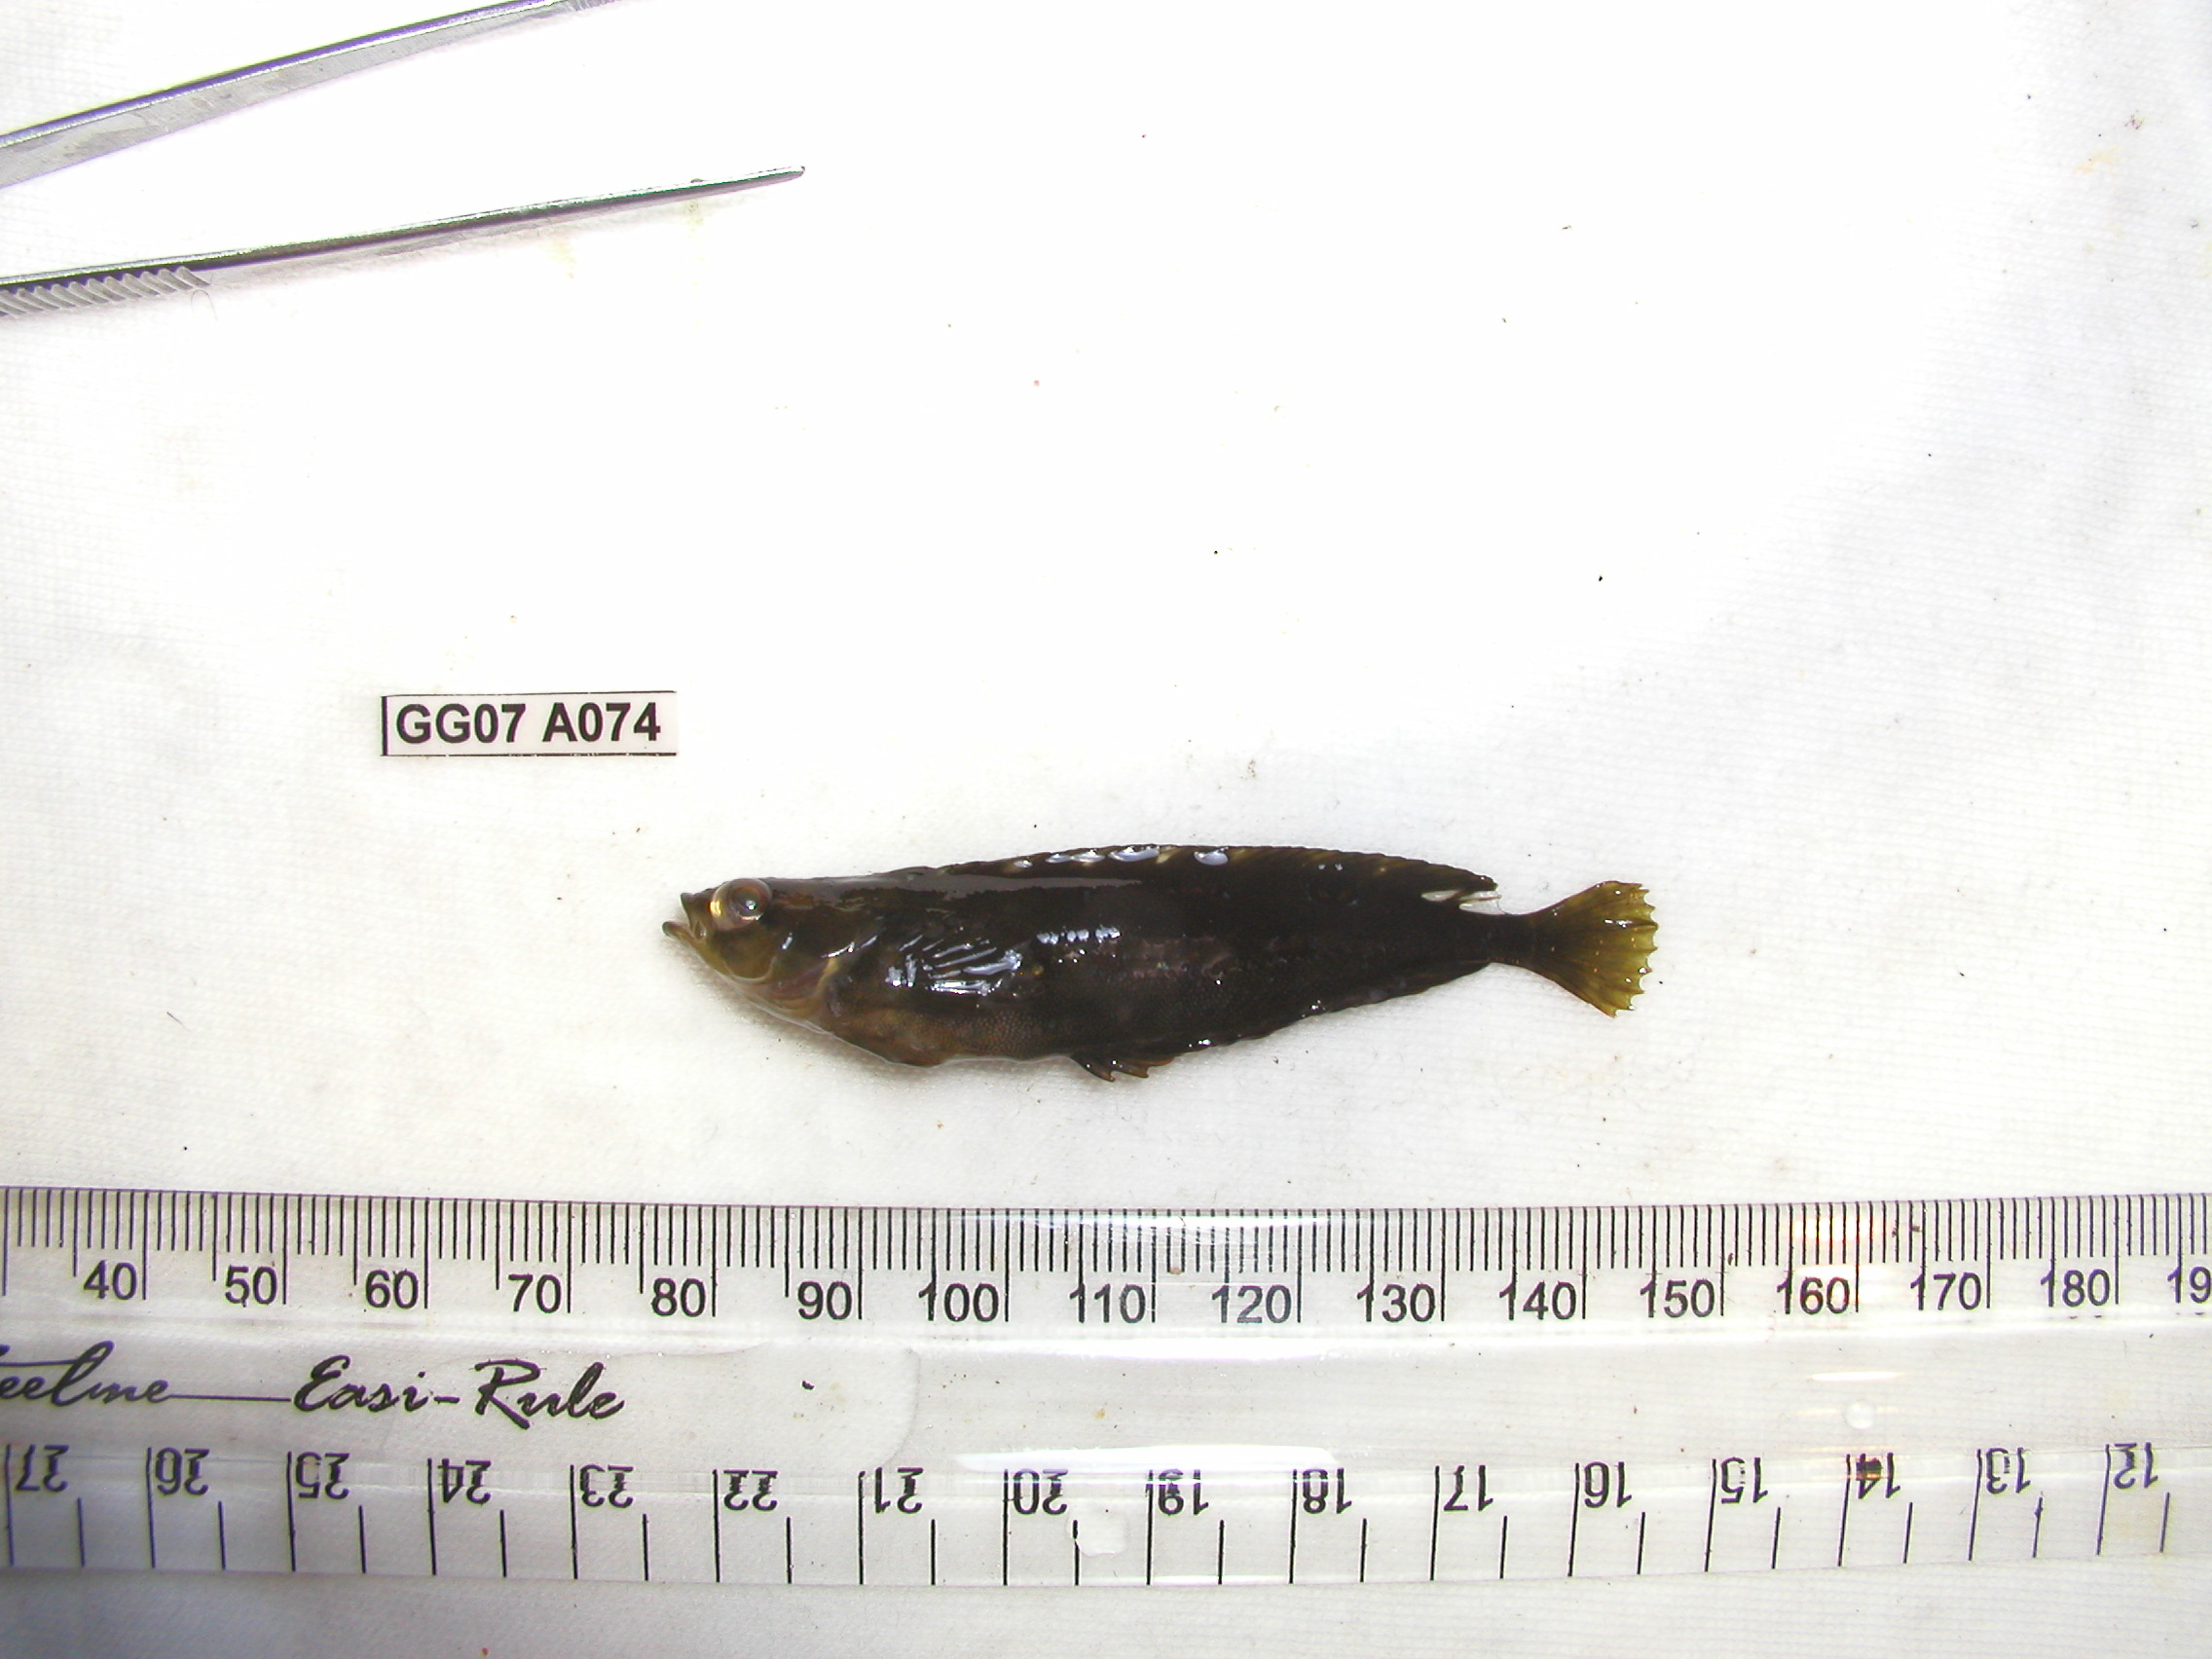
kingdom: Animalia
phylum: Chordata
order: Perciformes
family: Clinidae
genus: Pavoclinus
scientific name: Pavoclinus graminis
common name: Grass klipfish
